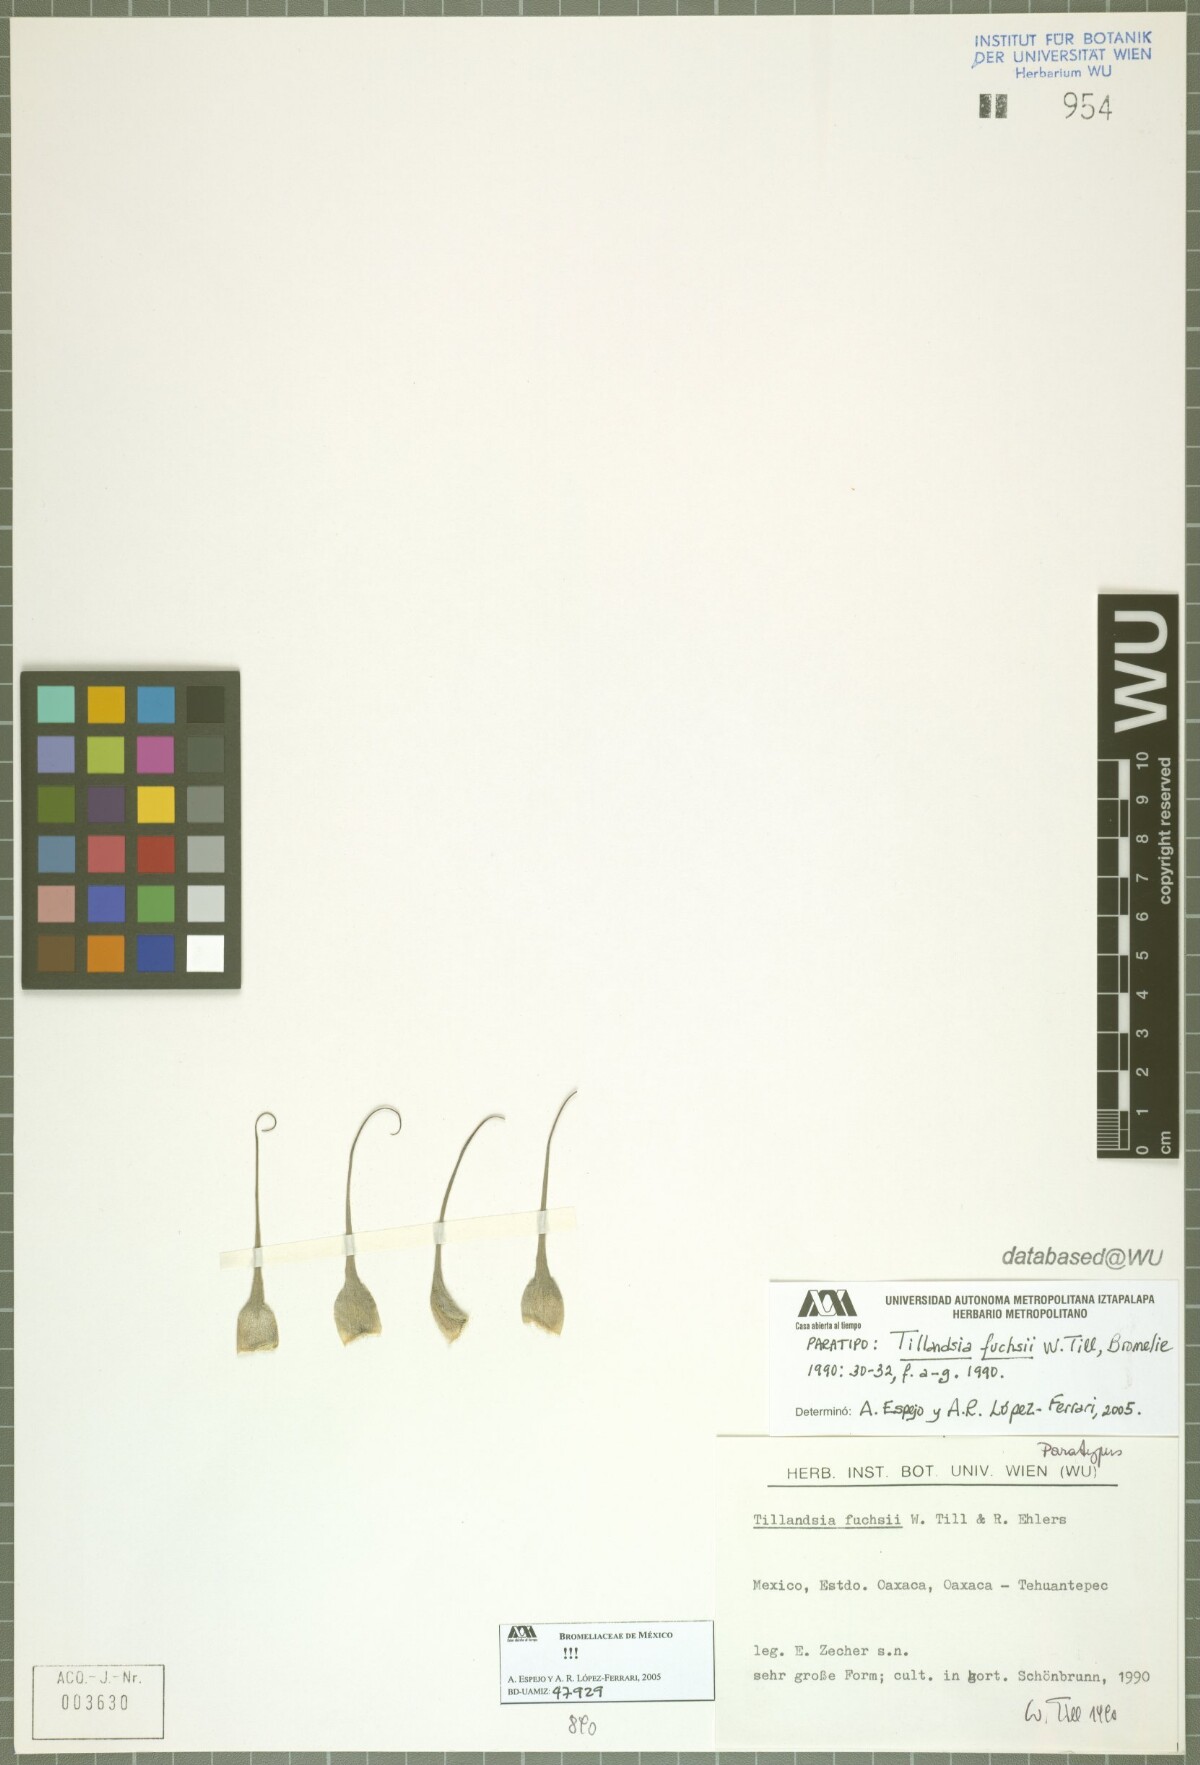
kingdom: Plantae
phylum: Tracheophyta
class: Liliopsida
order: Poales
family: Bromeliaceae
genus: Tillandsia
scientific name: Tillandsia fuchsii
